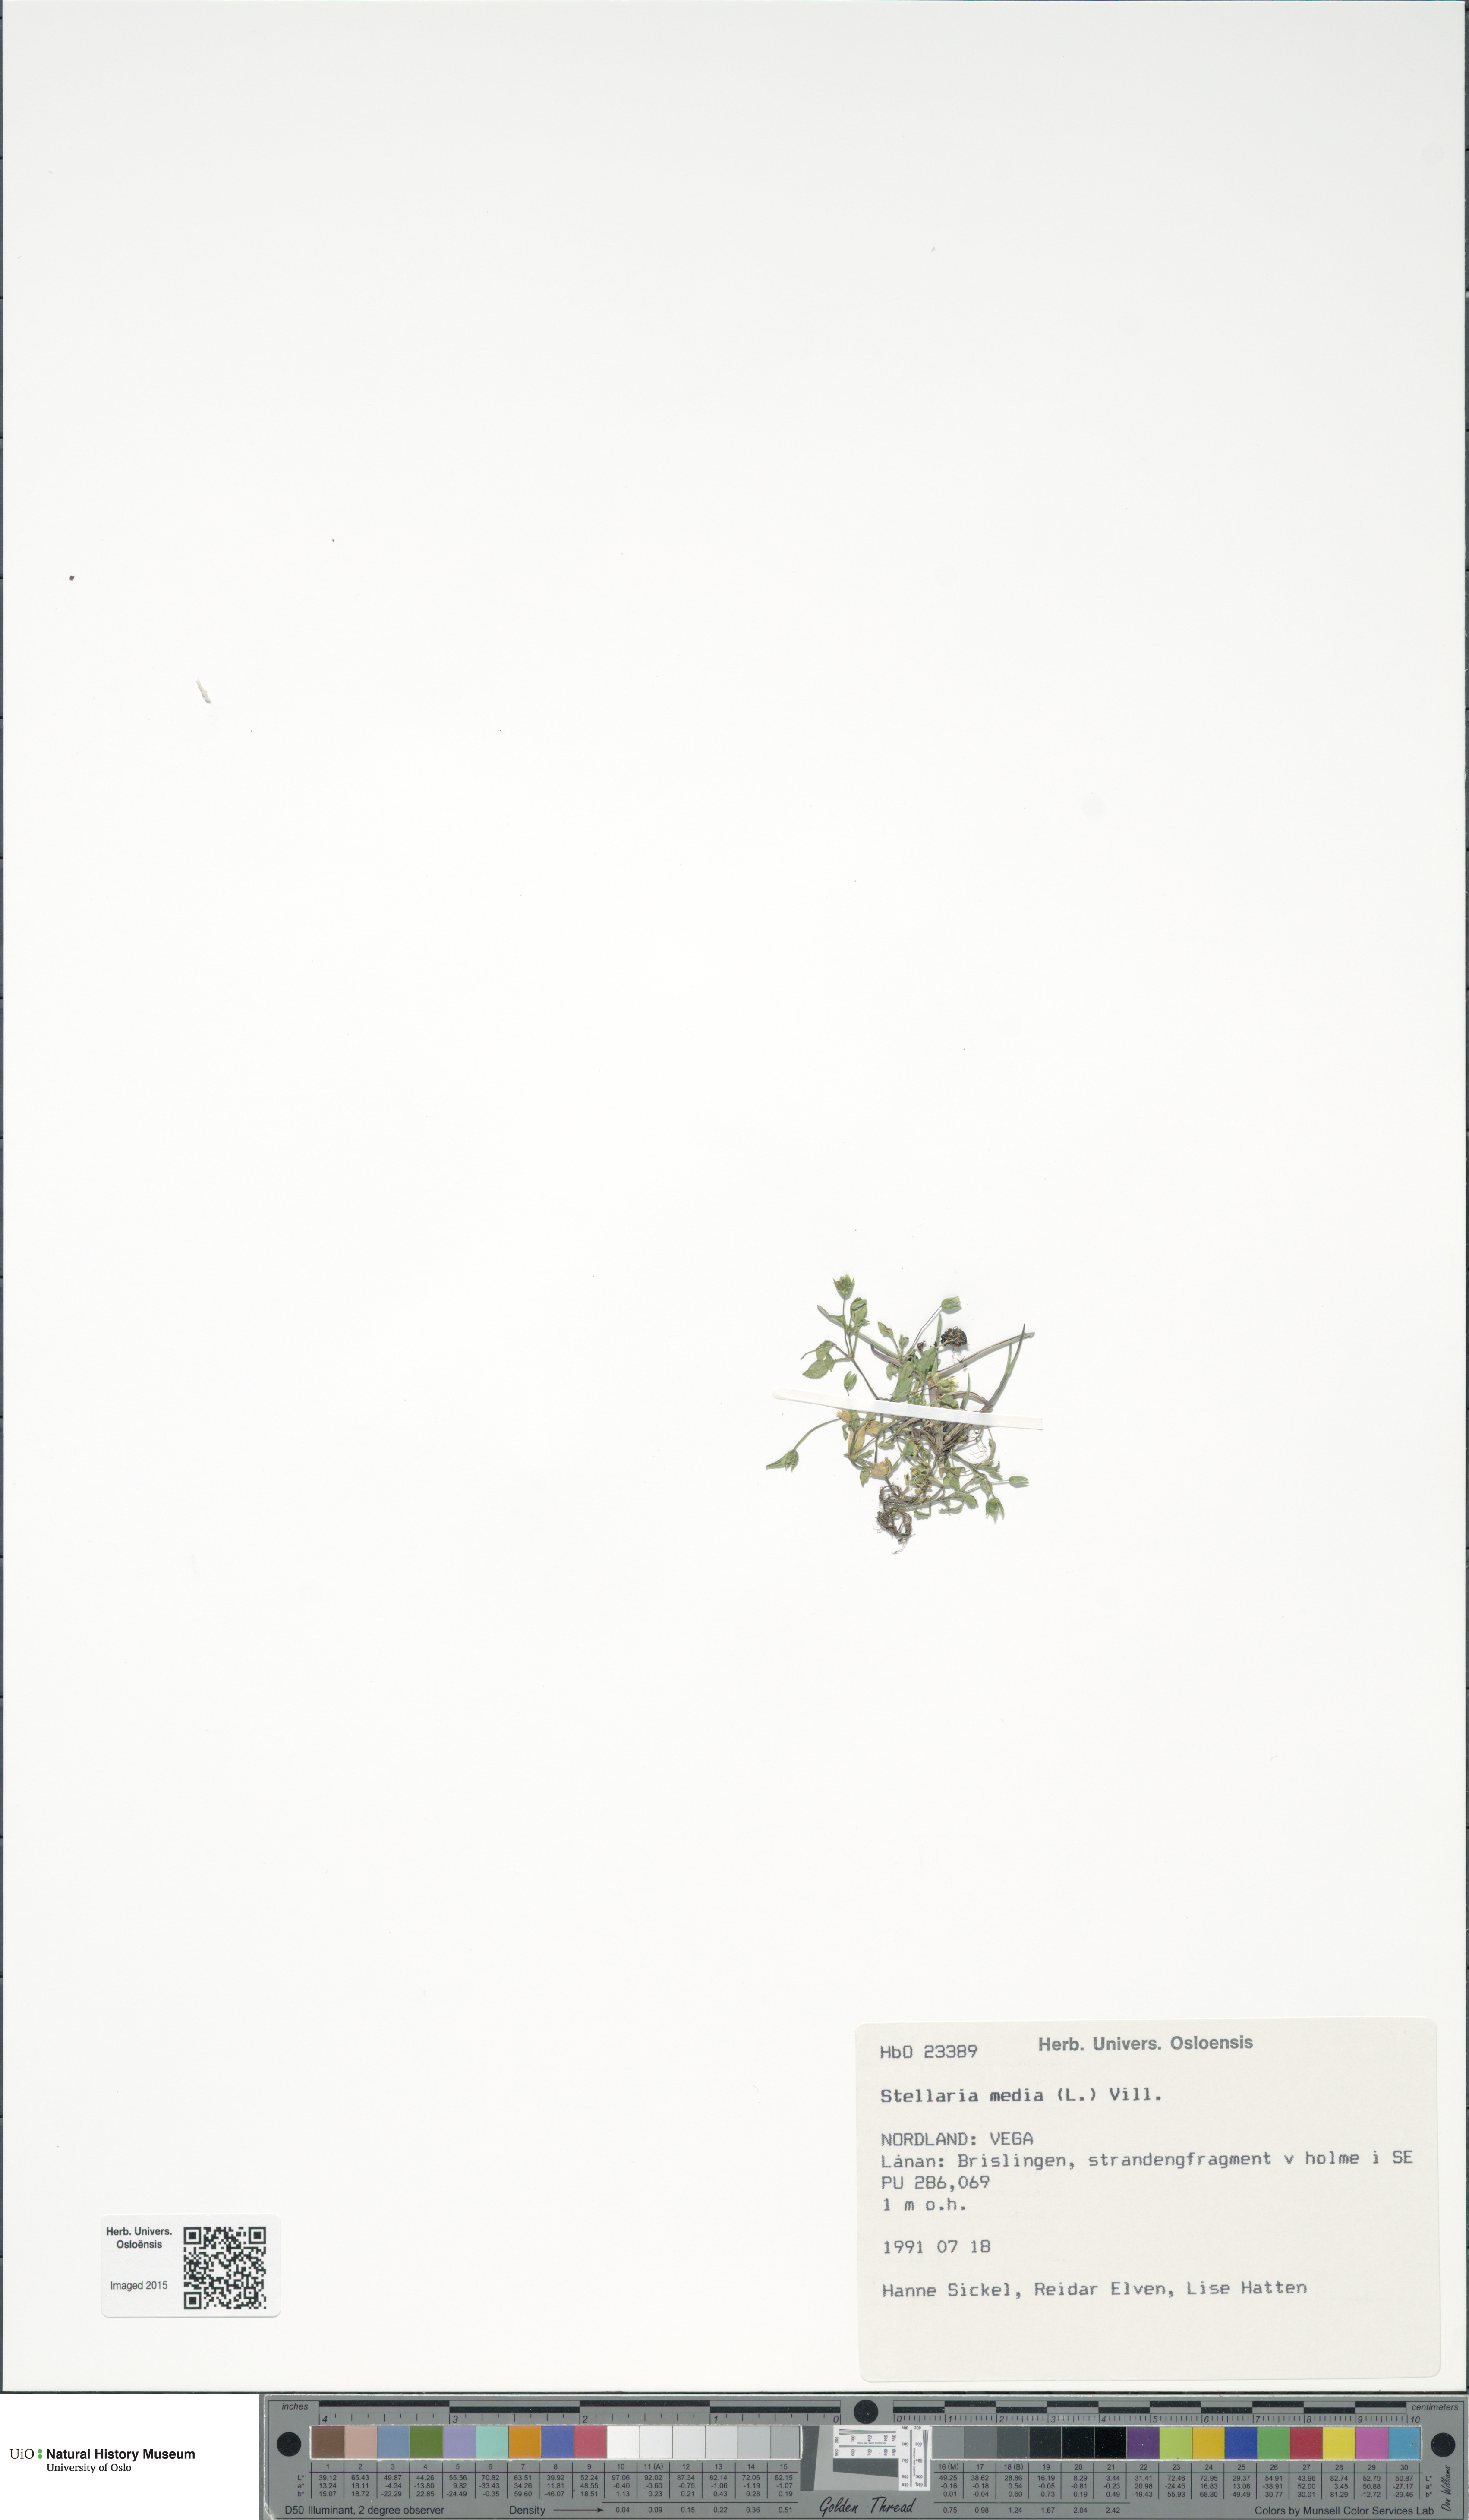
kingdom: Plantae
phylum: Tracheophyta
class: Magnoliopsida
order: Caryophyllales
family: Caryophyllaceae
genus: Stellaria
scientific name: Stellaria media
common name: Common chickweed
